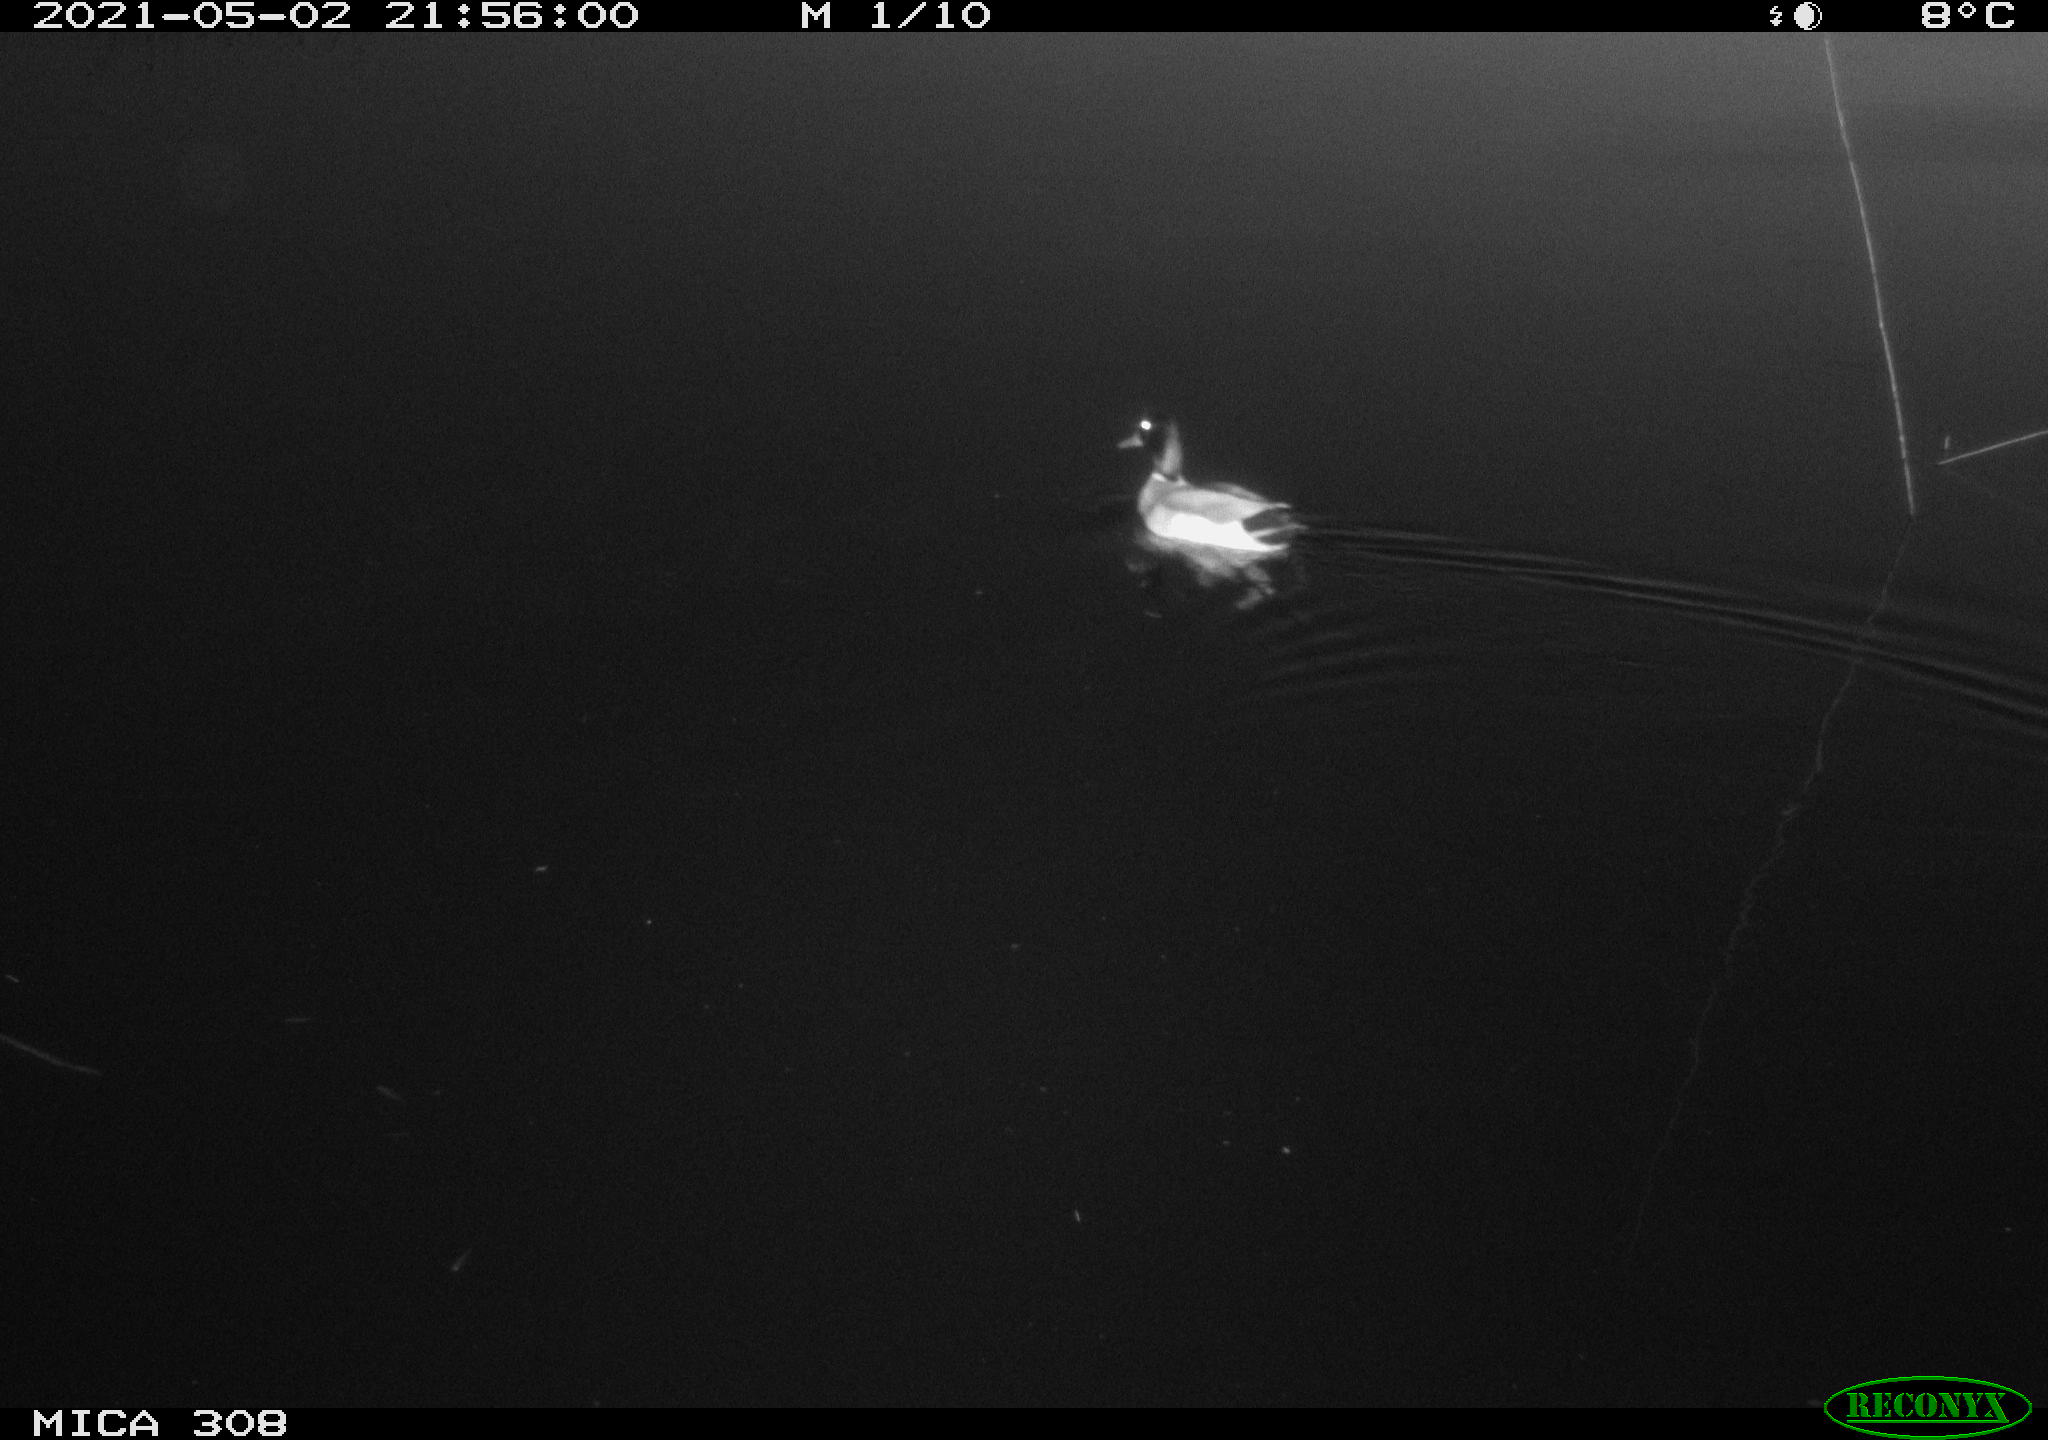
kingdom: Animalia
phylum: Chordata
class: Aves
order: Anseriformes
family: Anatidae
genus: Anas
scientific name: Anas platyrhynchos
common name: Mallard
